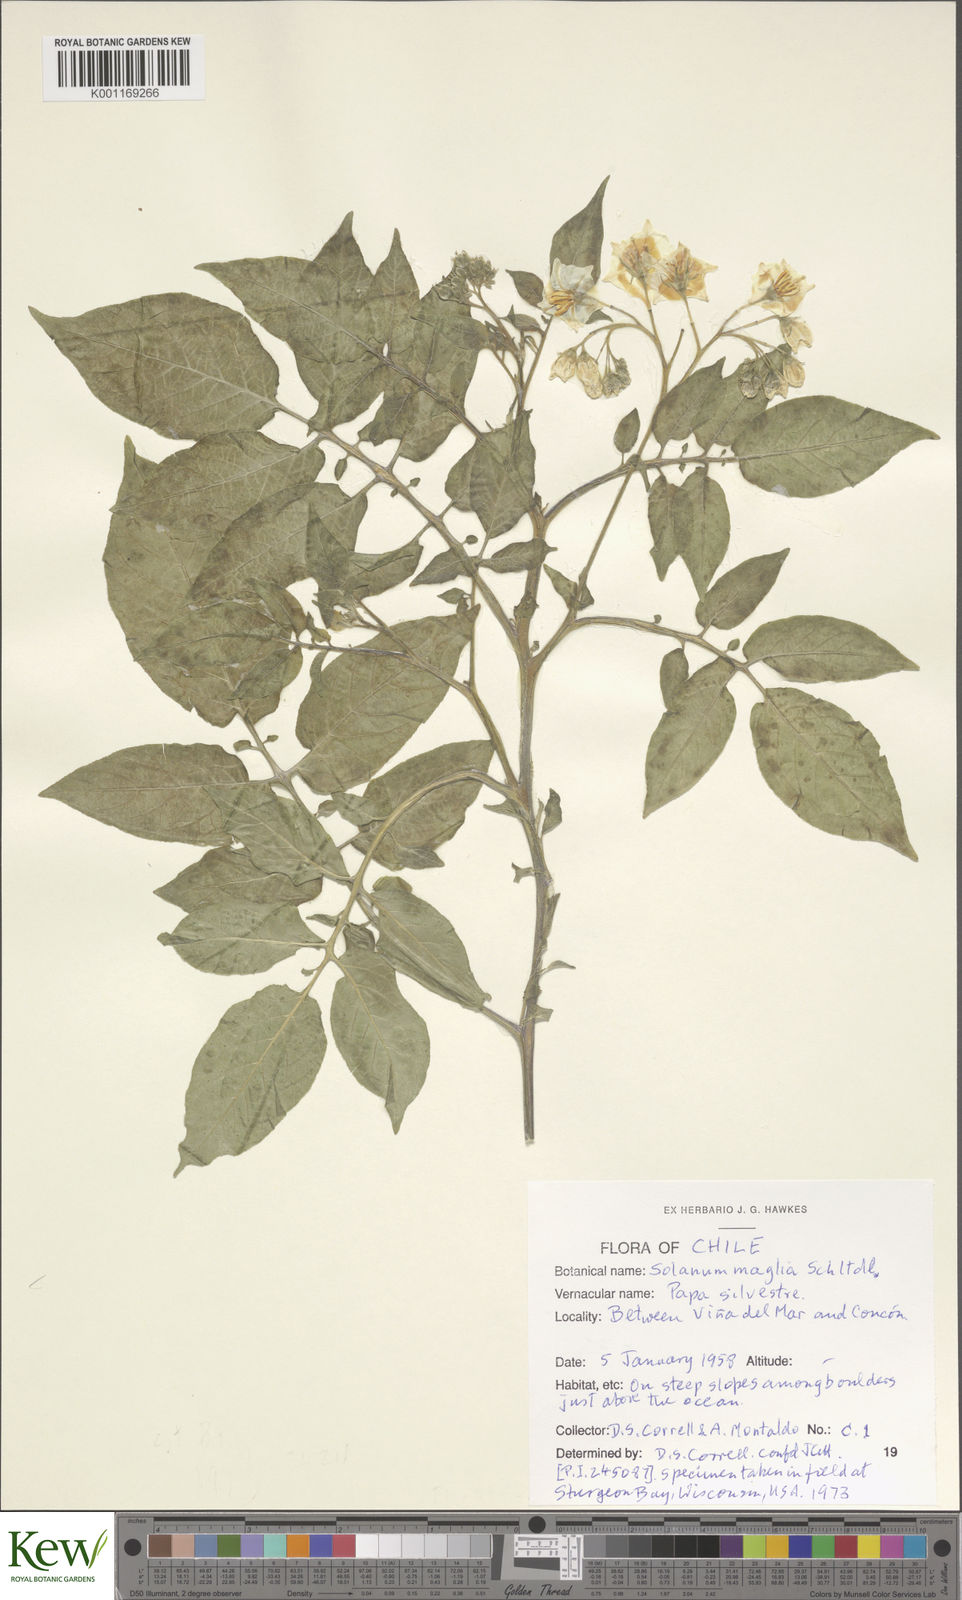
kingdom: Plantae
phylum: Tracheophyta
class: Magnoliopsida
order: Solanales
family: Solanaceae
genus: Solanum
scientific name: Solanum maglia
